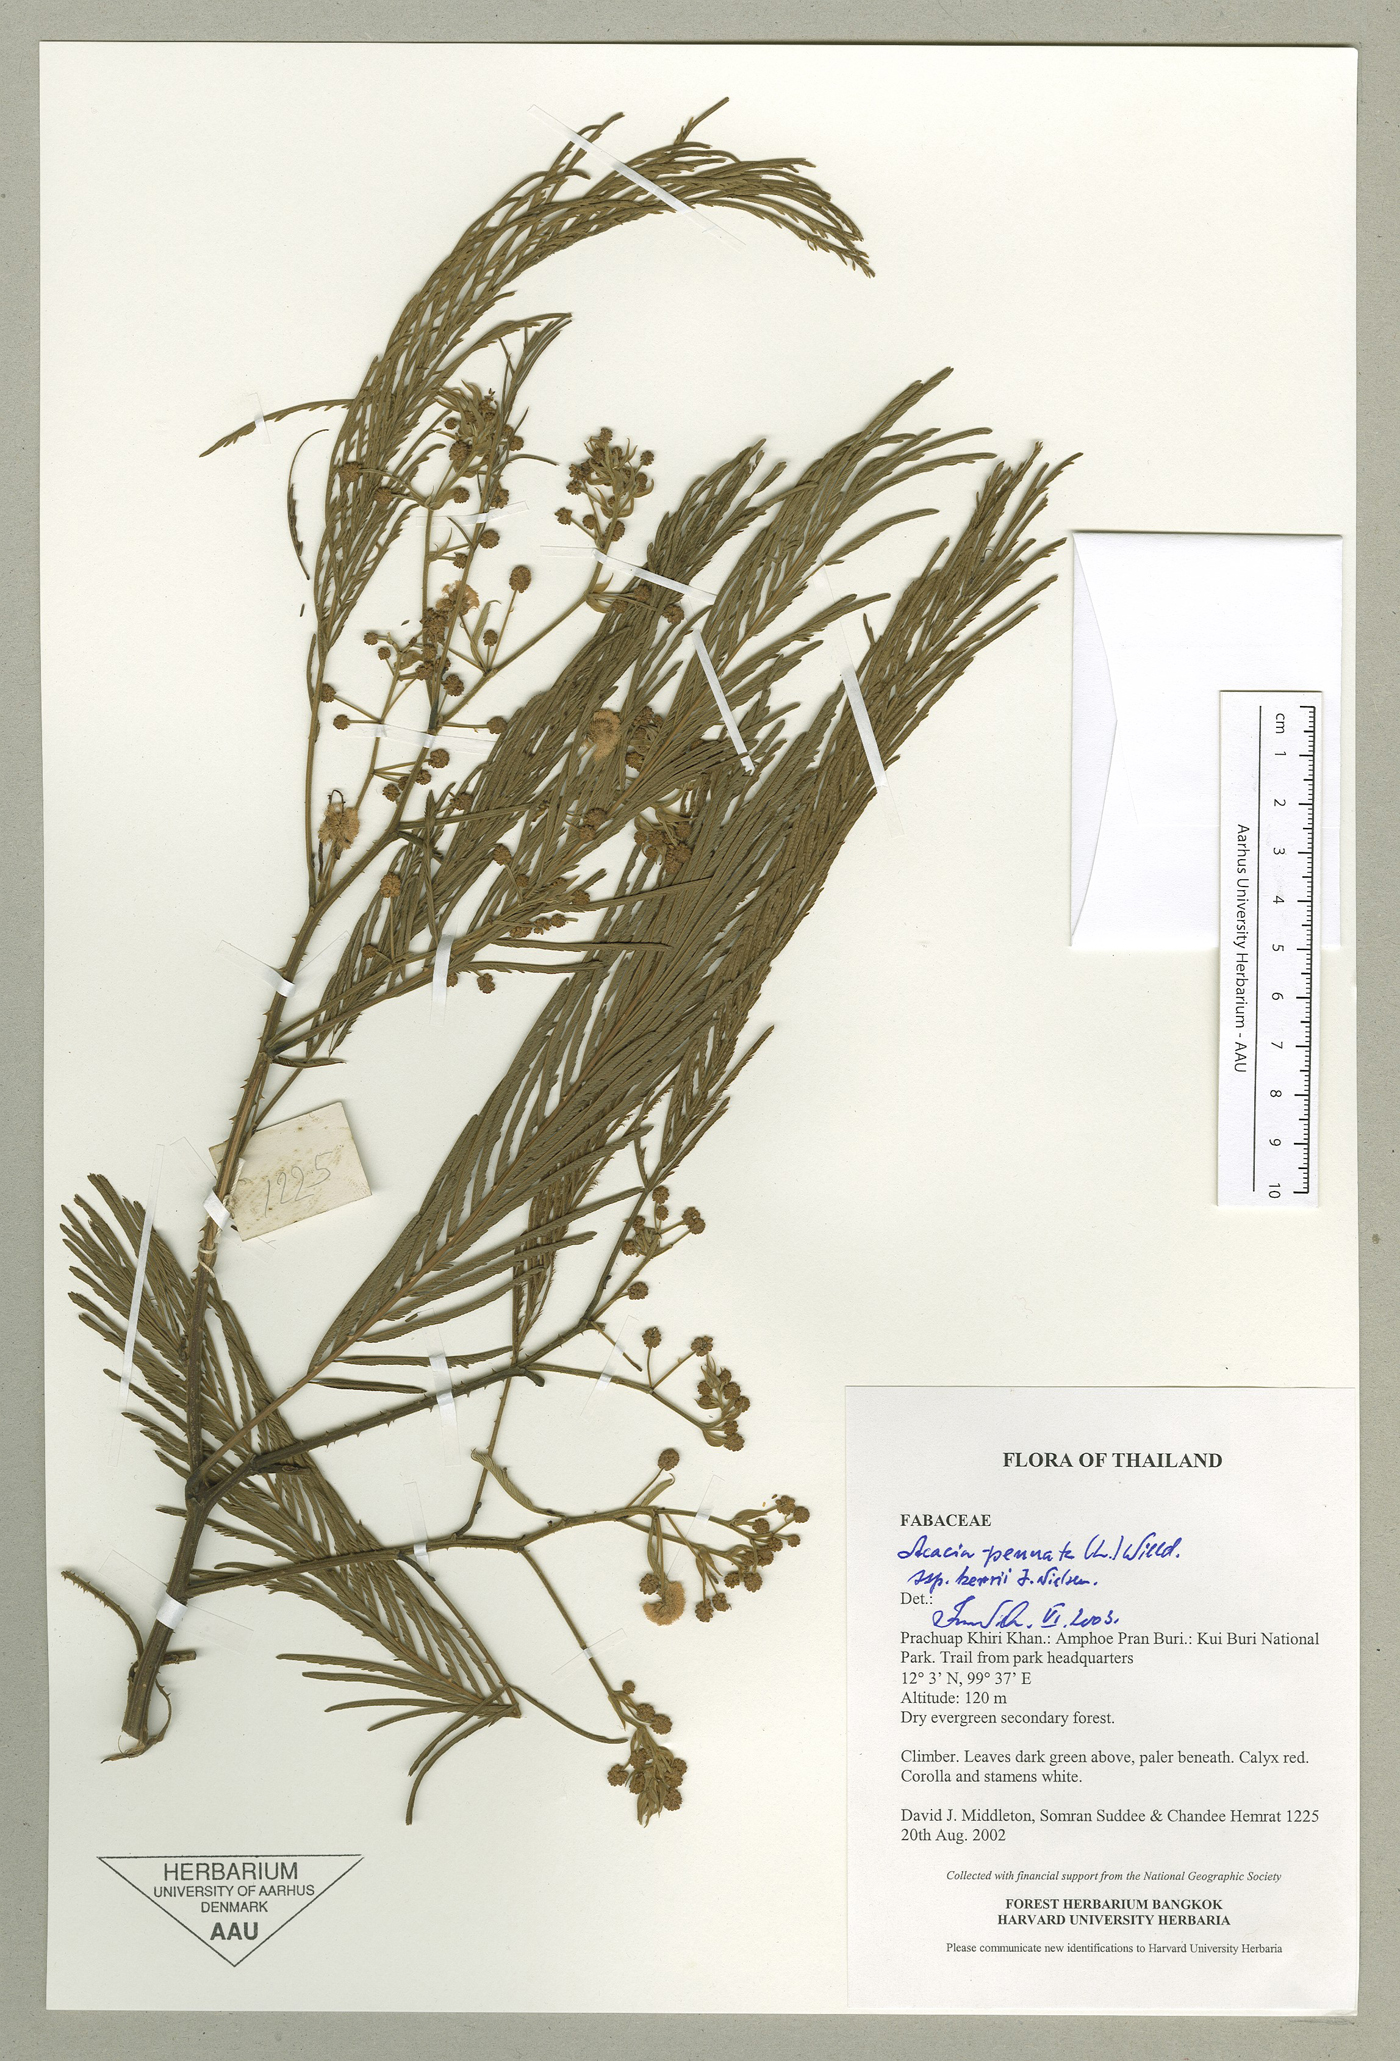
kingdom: Plantae
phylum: Tracheophyta
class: Magnoliopsida
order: Fabales
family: Fabaceae
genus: Senegalia
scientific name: Senegalia kerrii
